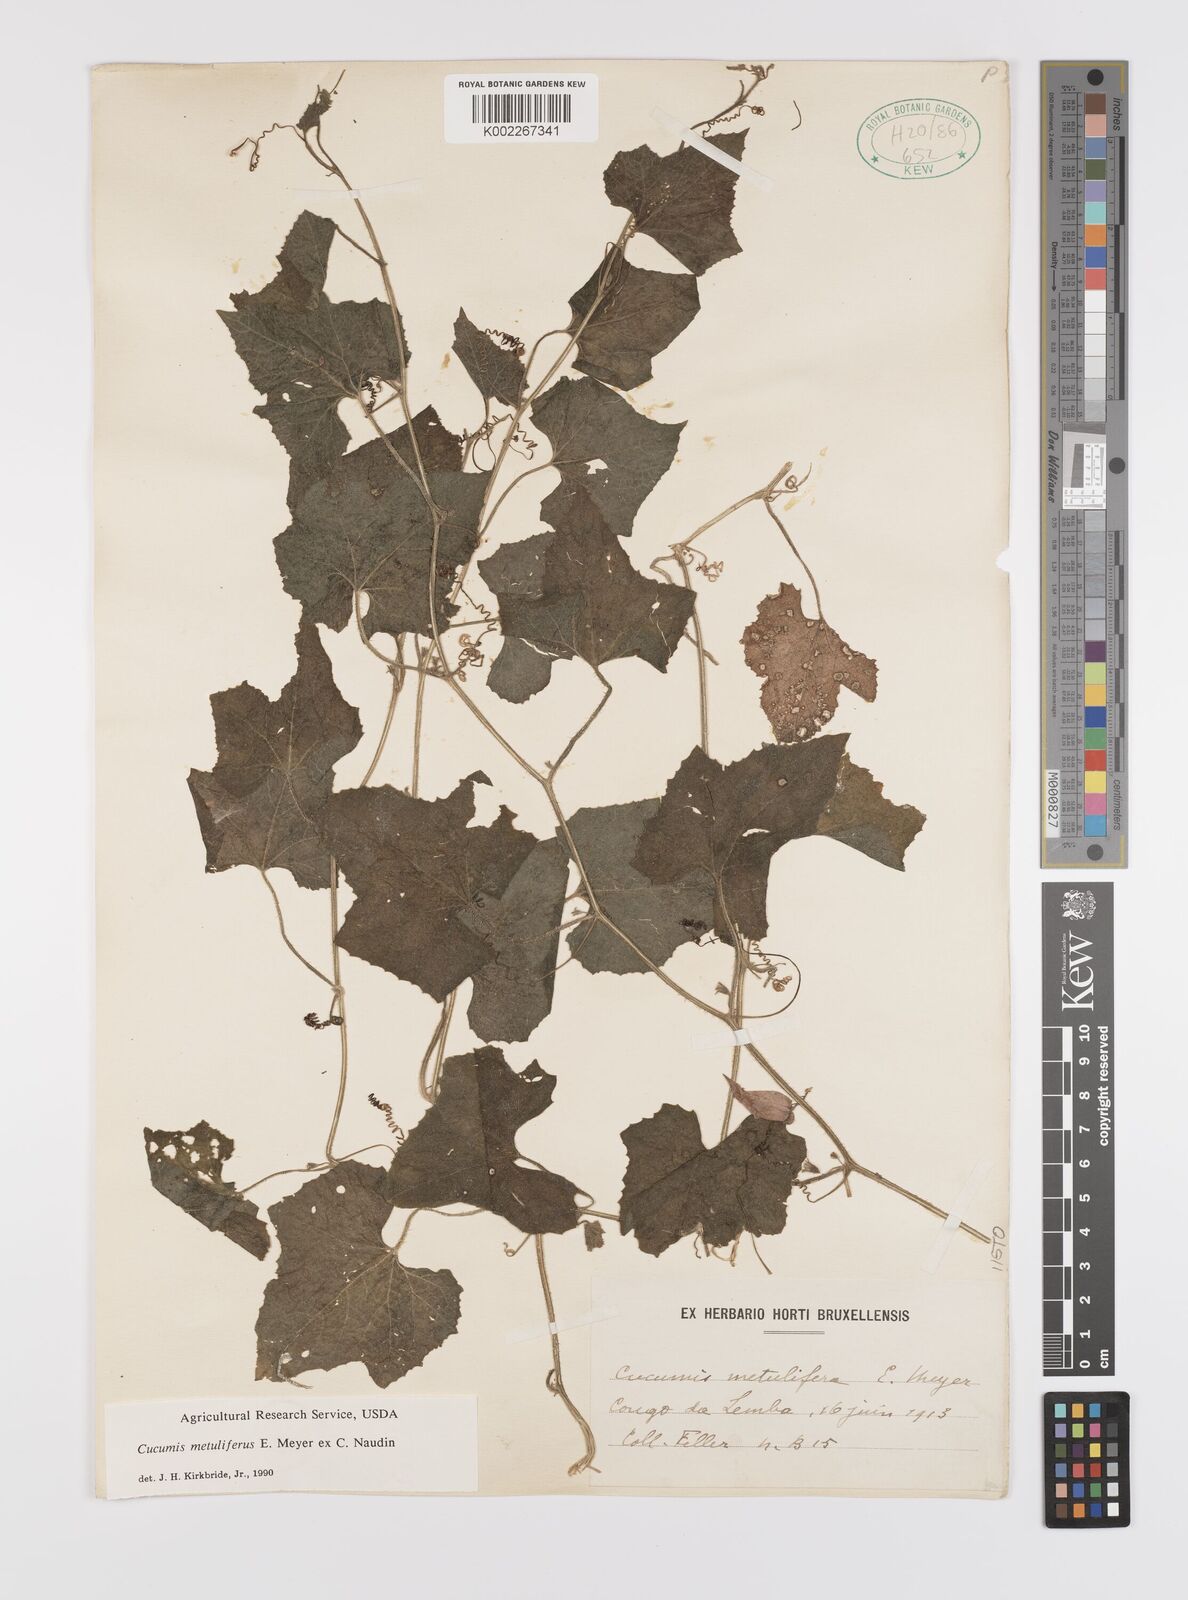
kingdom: Plantae
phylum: Tracheophyta
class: Magnoliopsida
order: Cucurbitales
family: Cucurbitaceae
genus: Cucumis
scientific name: Cucumis metuliferus
